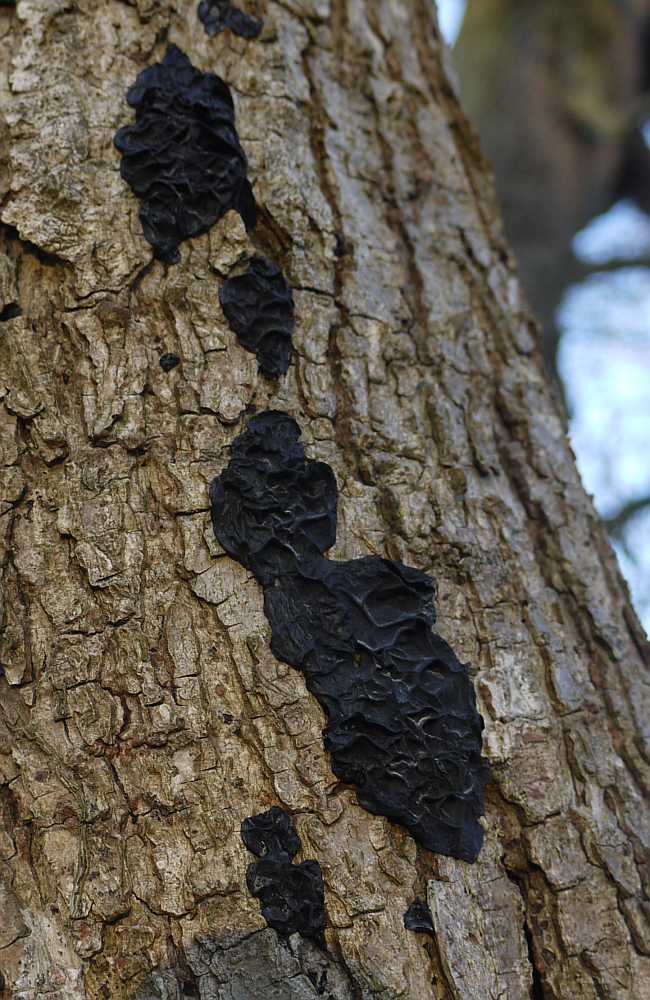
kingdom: Fungi
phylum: Basidiomycota
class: Agaricomycetes
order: Auriculariales
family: Auriculariaceae
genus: Exidia
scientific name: Exidia nigricans
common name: almindelig bævretop
